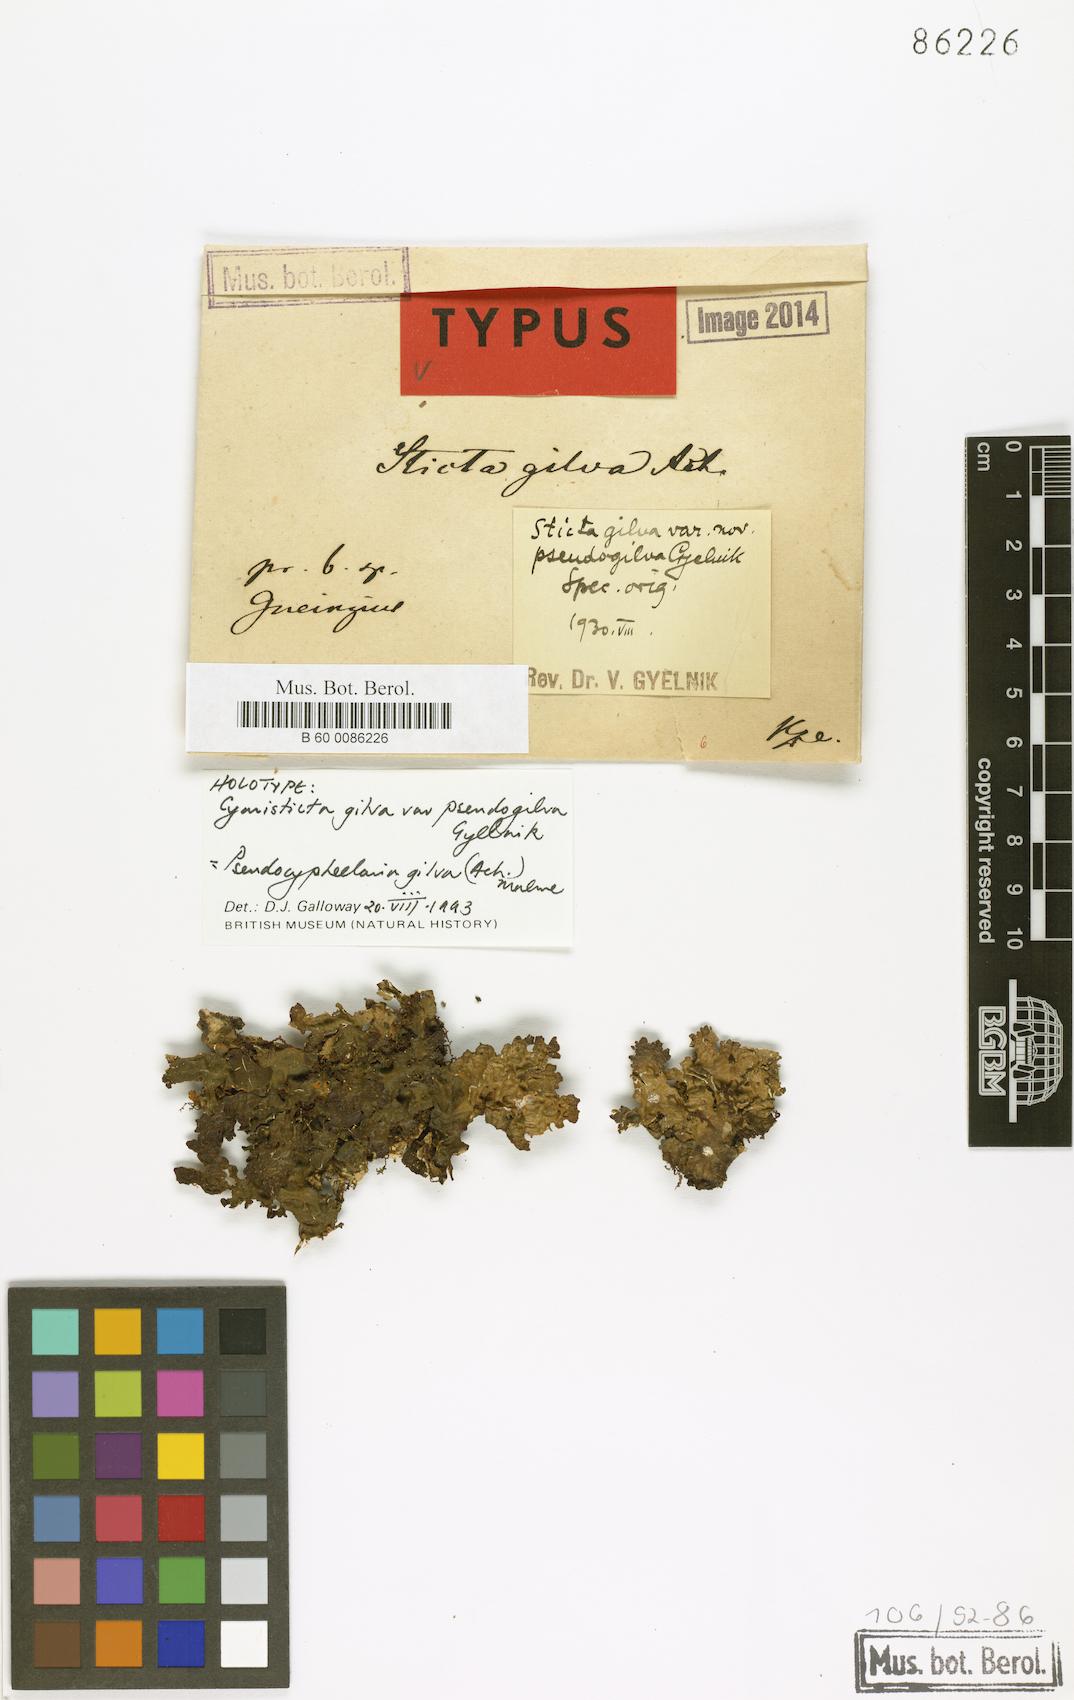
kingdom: Fungi
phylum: Ascomycota
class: Lecanoromycetes
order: Peltigerales
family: Lobariaceae
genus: Pseudocyphellaria
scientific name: Pseudocyphellaria gilva
